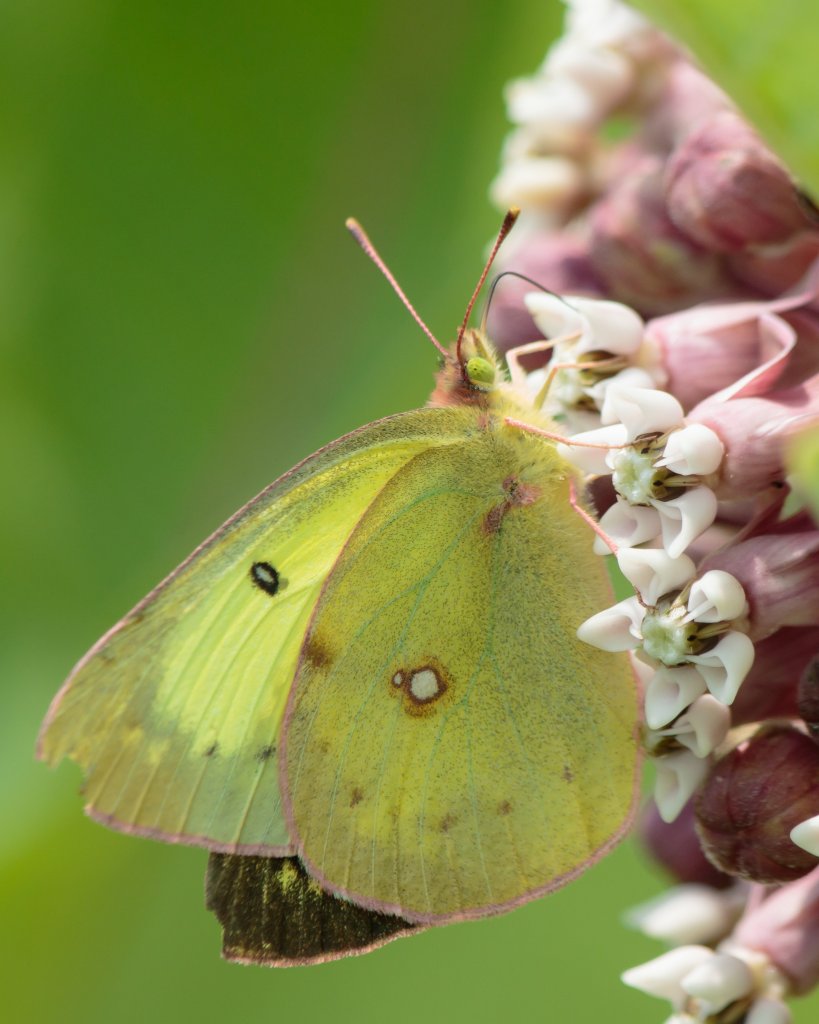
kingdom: Animalia
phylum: Arthropoda
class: Insecta
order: Lepidoptera
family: Pieridae
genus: Colias
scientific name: Colias philodice
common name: Clouded Sulphur
